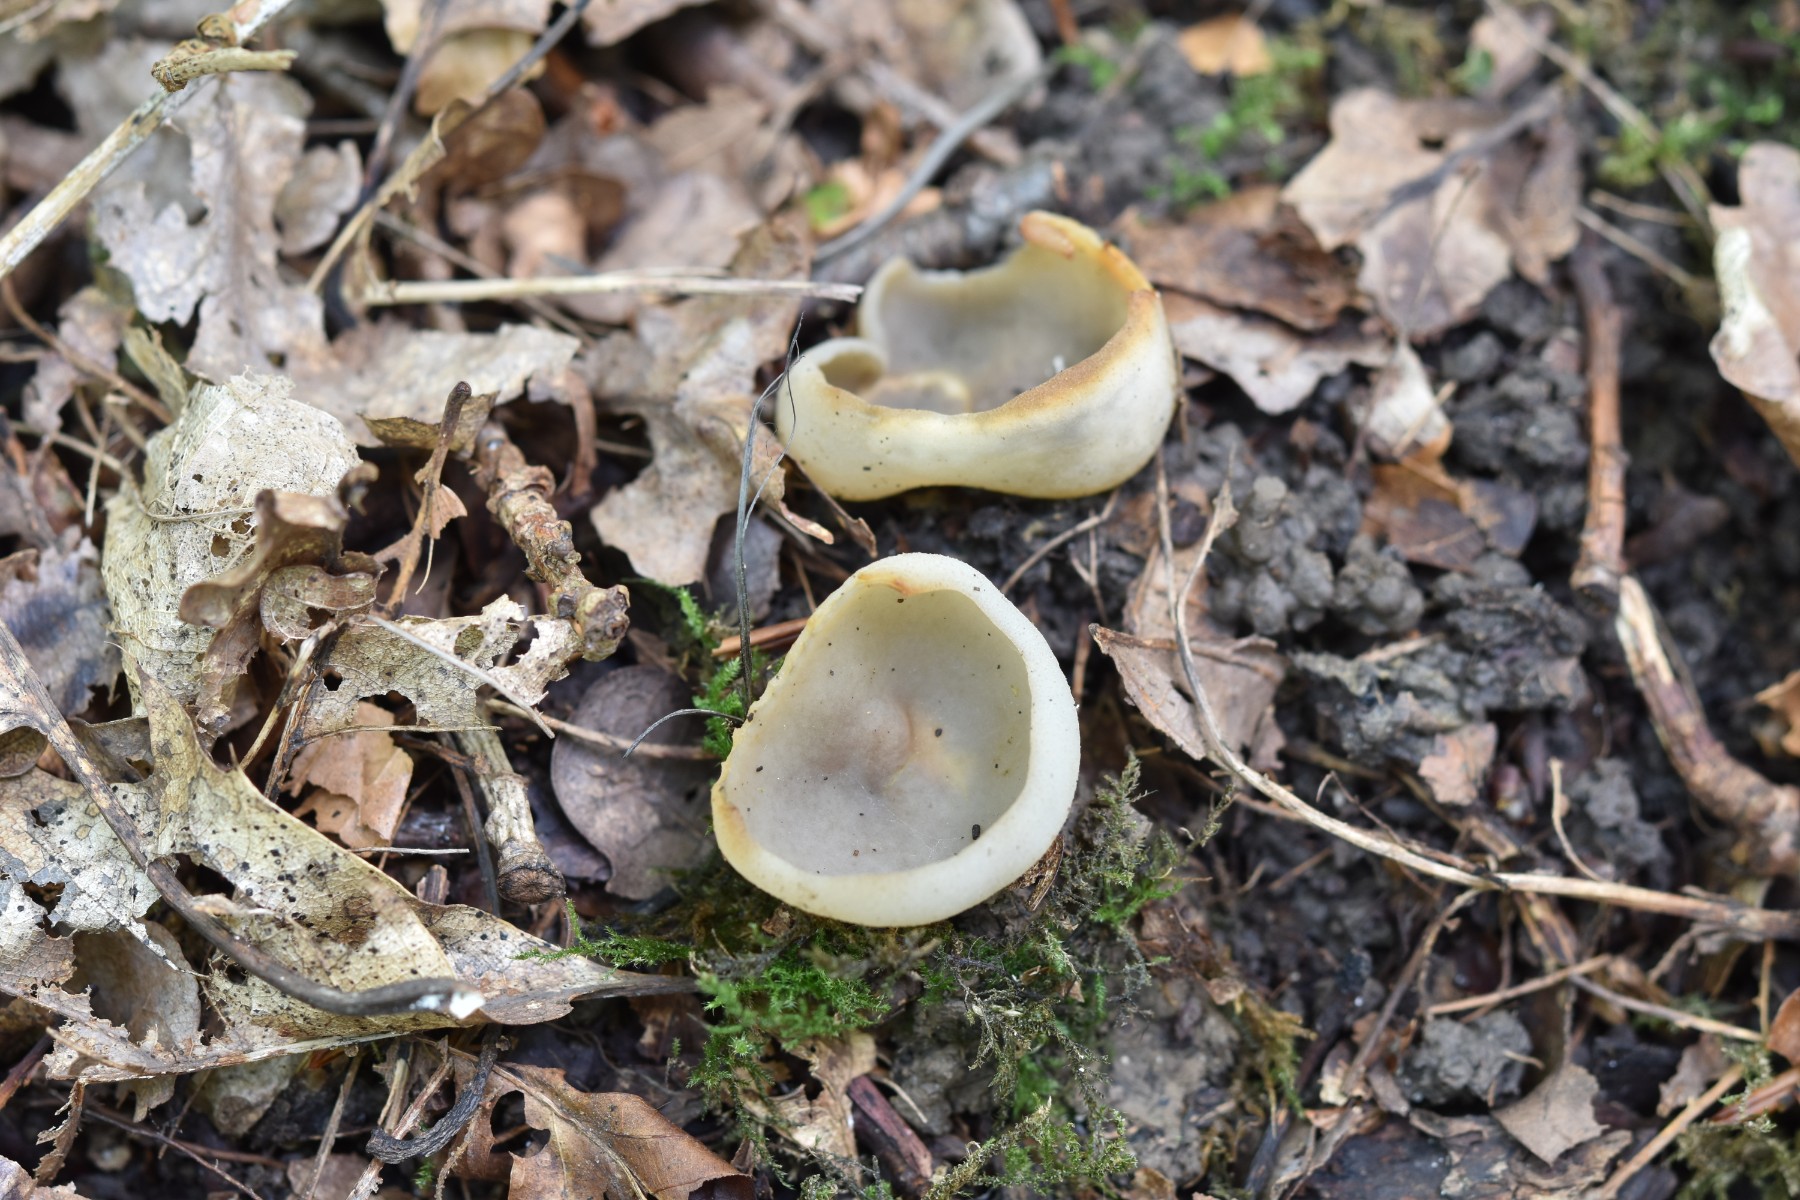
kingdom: Fungi
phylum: Ascomycota
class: Pezizomycetes
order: Pezizales
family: Pezizaceae
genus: Paragalactinia
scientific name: Paragalactinia succosa
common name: gulmælket bægersvamp
